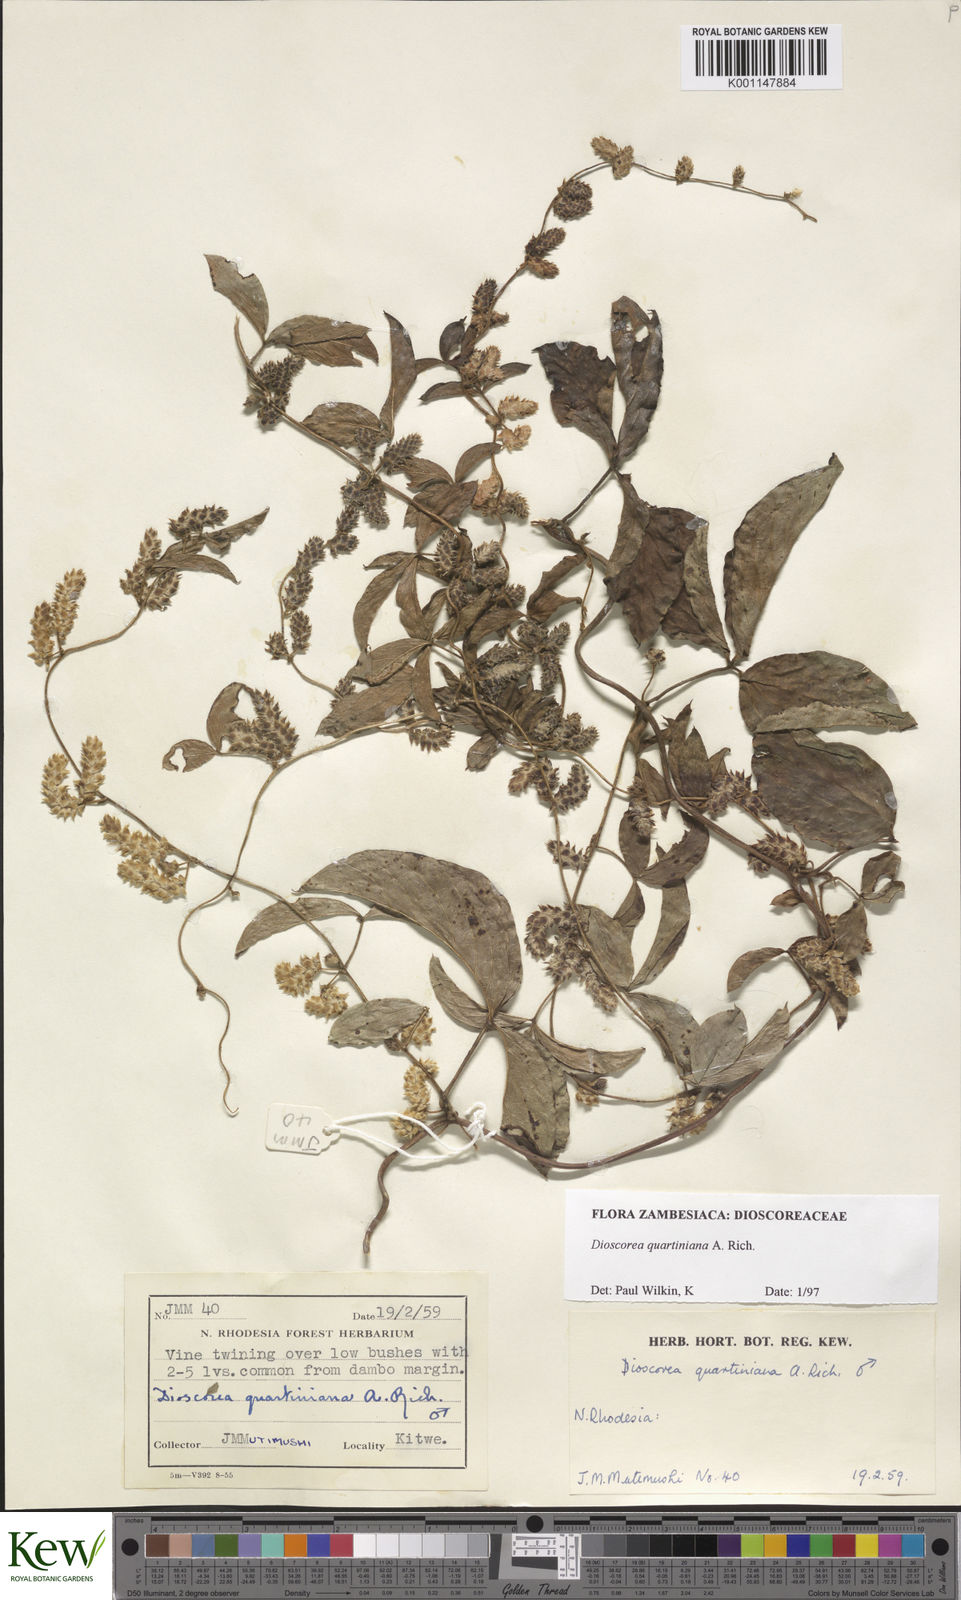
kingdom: Plantae
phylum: Tracheophyta
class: Liliopsida
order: Dioscoreales
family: Dioscoreaceae
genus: Dioscorea
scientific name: Dioscorea quartiniana
